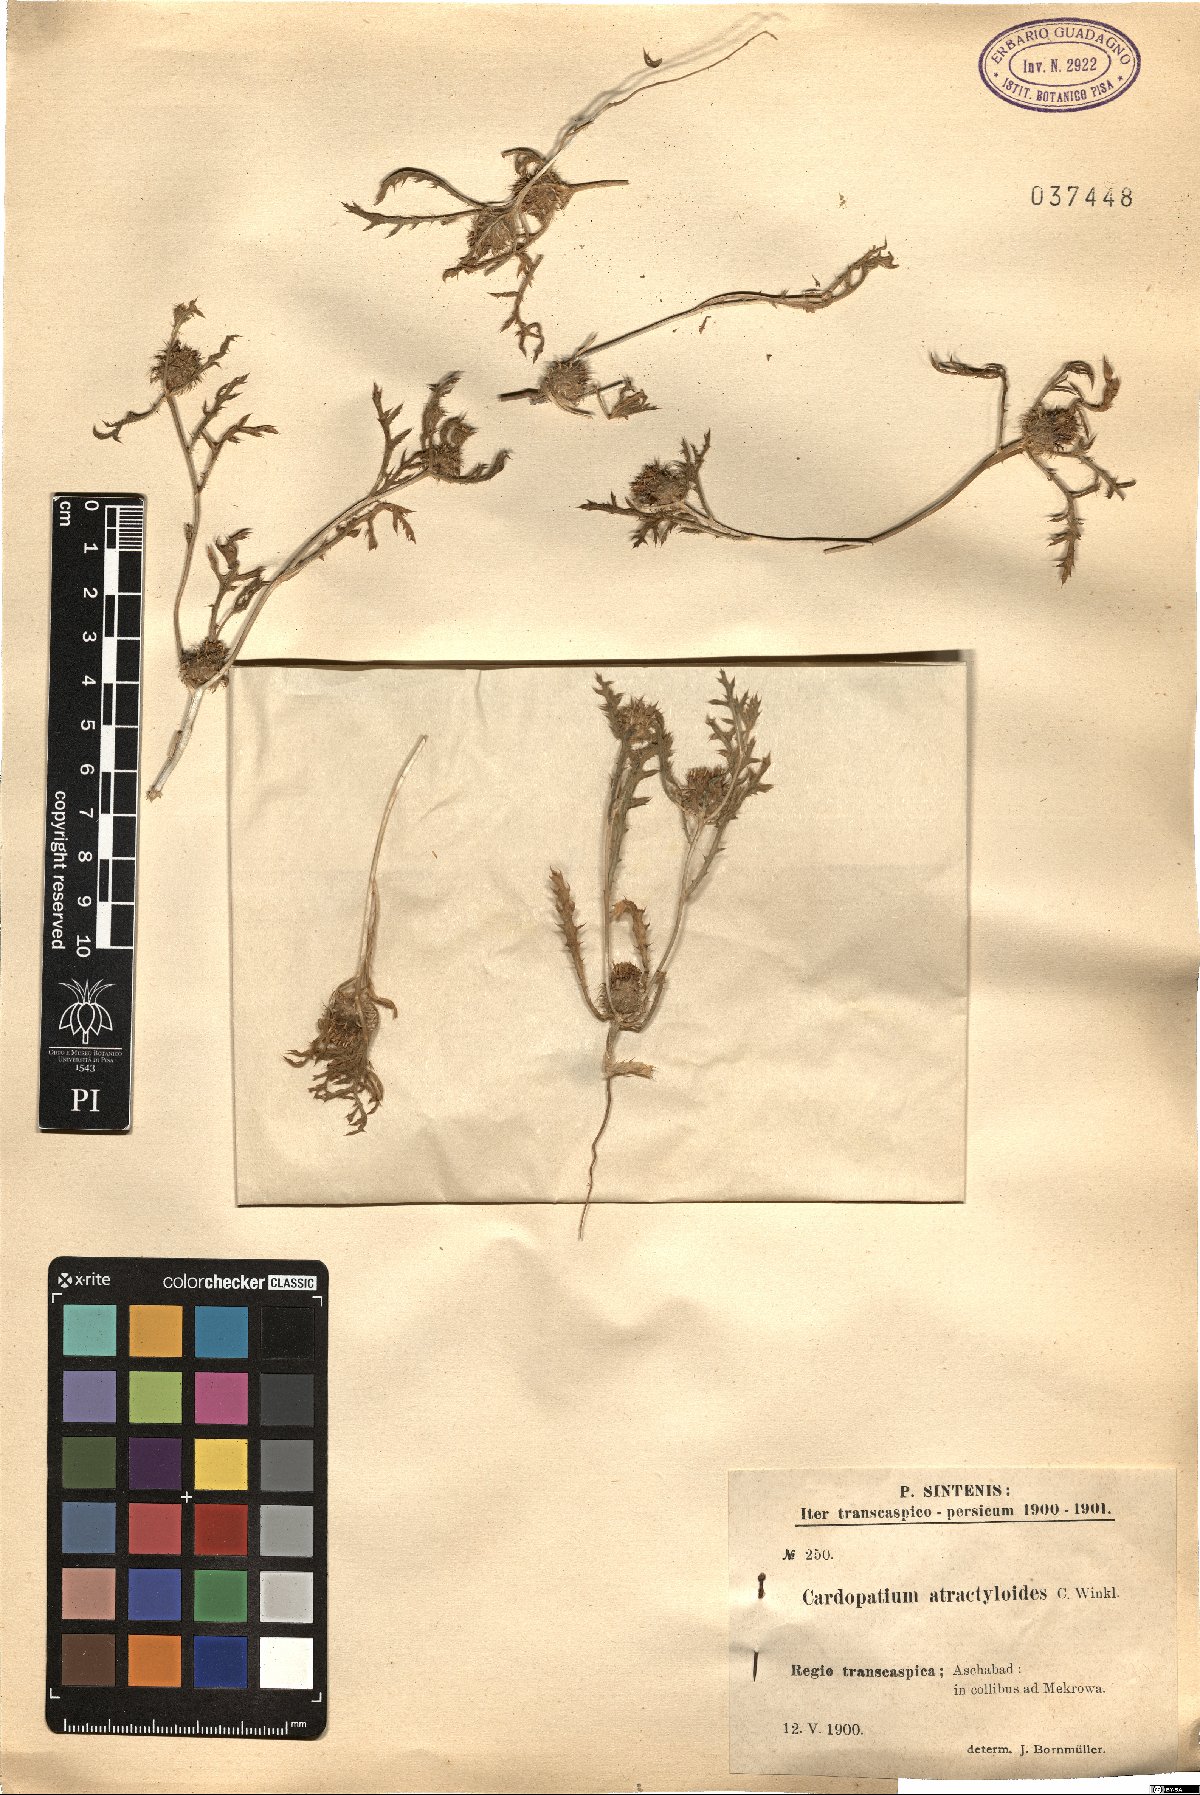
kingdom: Plantae
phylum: Tracheophyta
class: Magnoliopsida
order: Asterales
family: Asteraceae
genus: Cousiniopsis
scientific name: Cousiniopsis atractyloides
